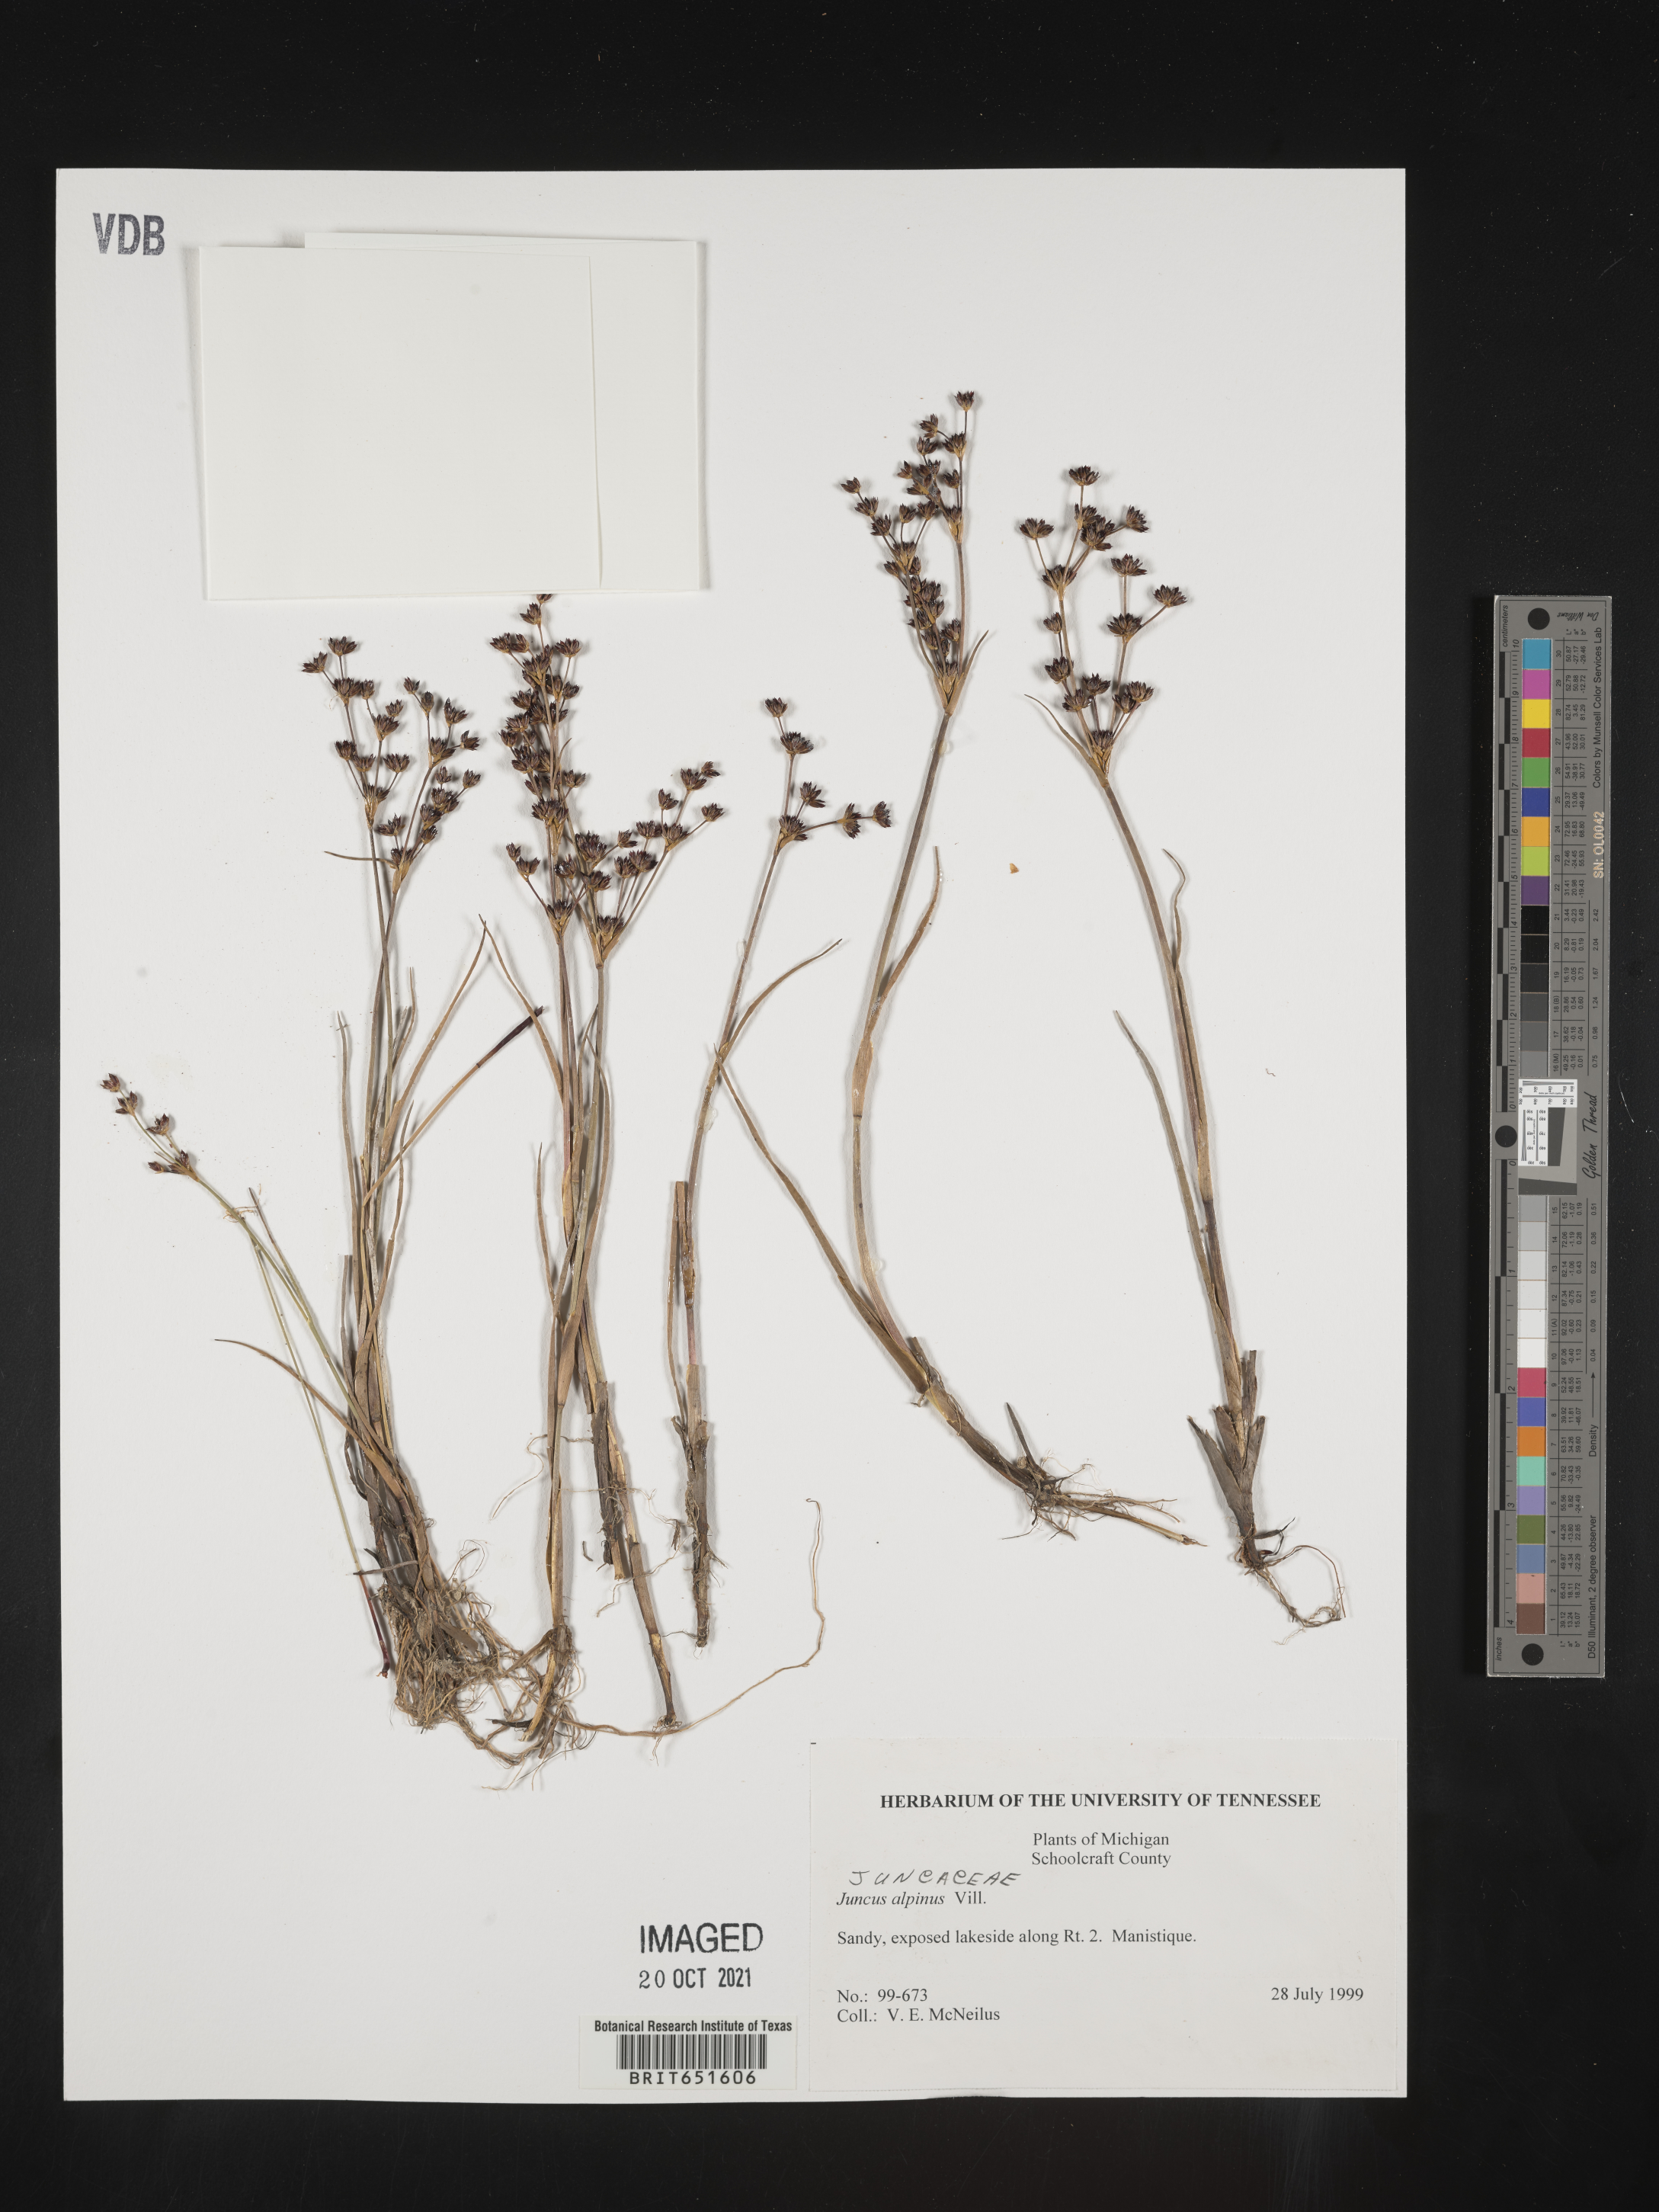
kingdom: Plantae
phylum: Tracheophyta
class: Liliopsida
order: Poales
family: Juncaceae
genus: Juncus
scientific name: Juncus alpinoarticulatus
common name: Alpine rush
